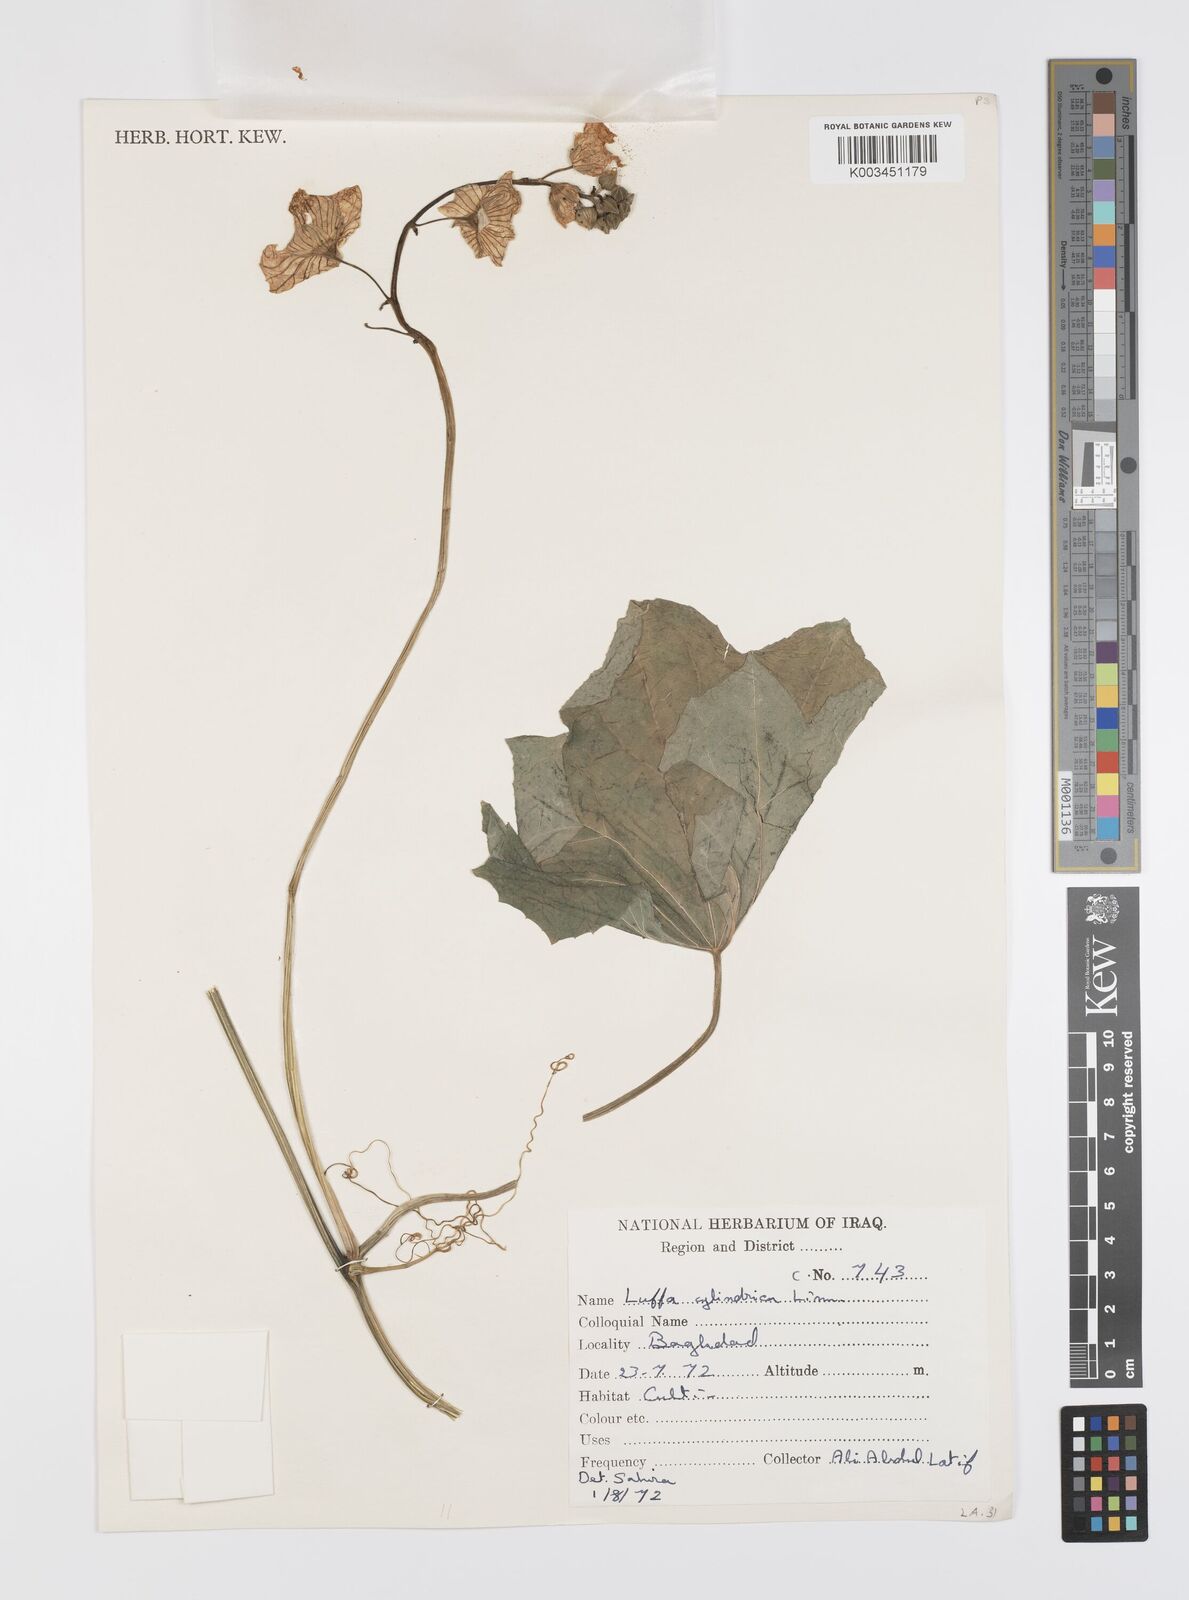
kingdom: Plantae
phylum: Tracheophyta
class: Magnoliopsida
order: Cucurbitales
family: Cucurbitaceae
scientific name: Cucurbitaceae
